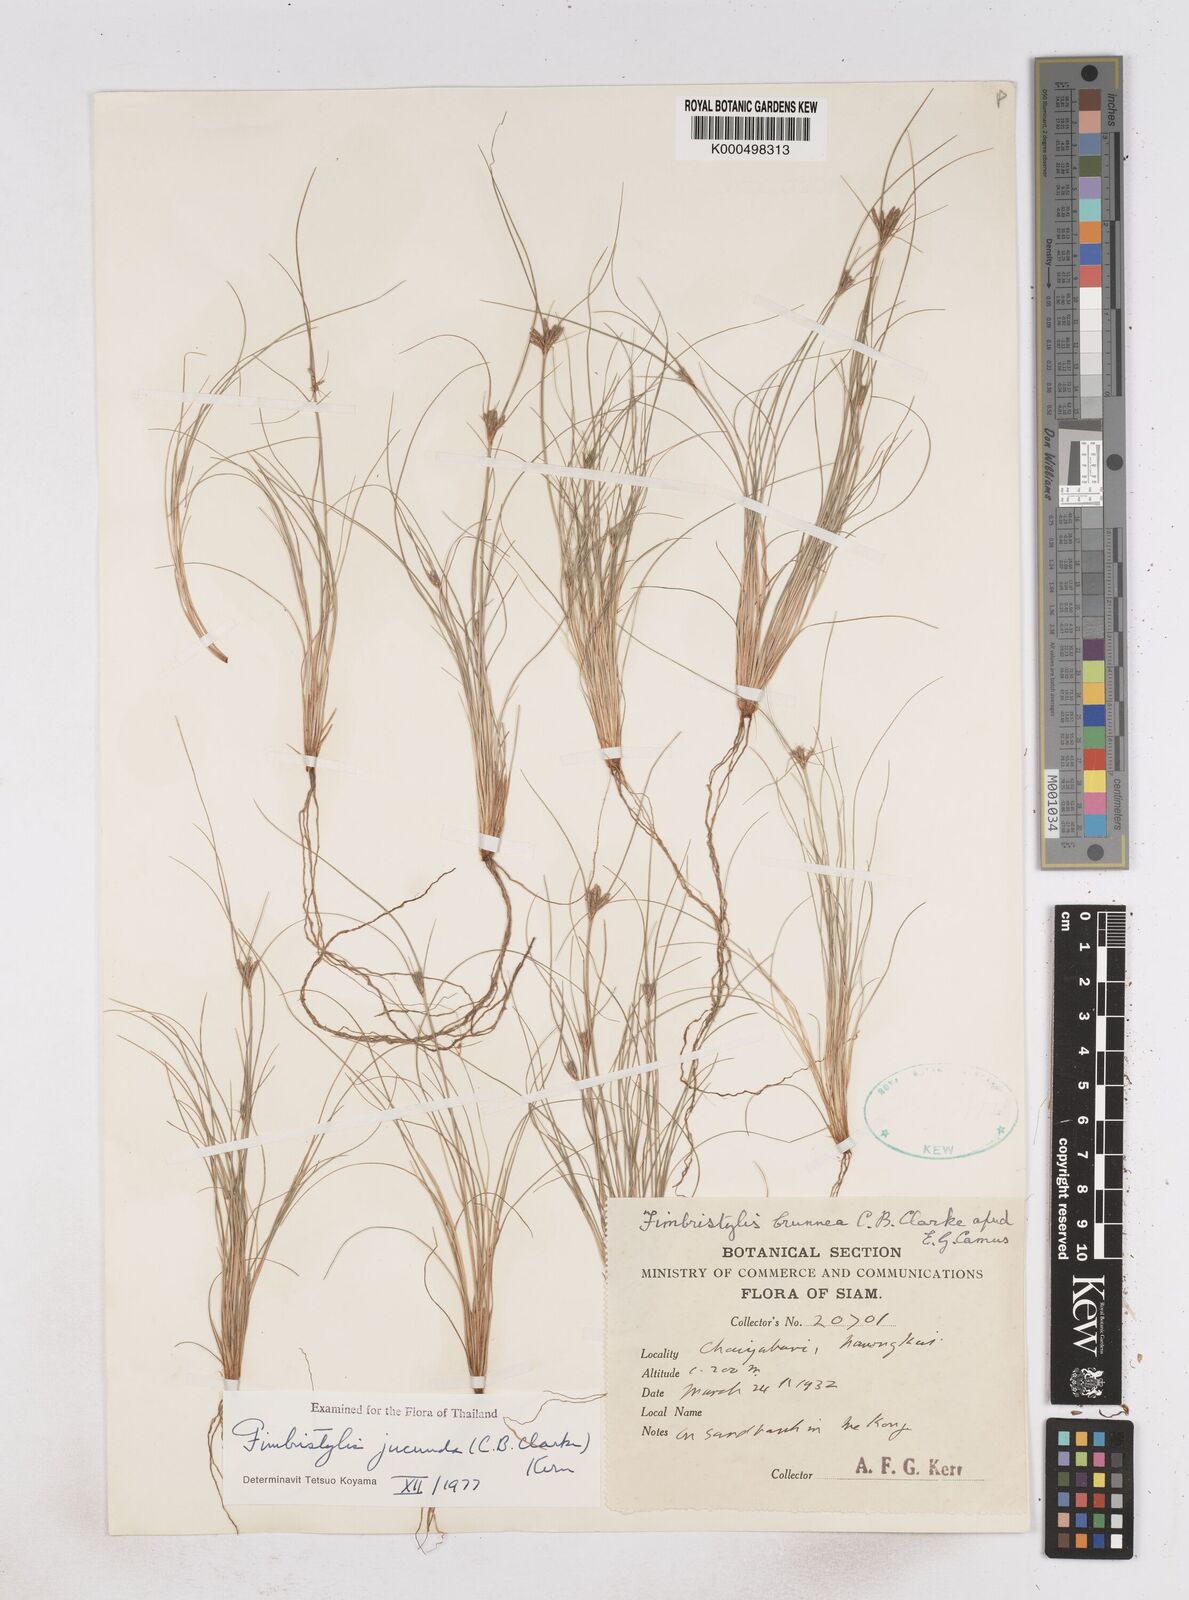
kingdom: Plantae
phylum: Tracheophyta
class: Liliopsida
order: Poales
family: Cyperaceae
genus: Fimbristylis
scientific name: Fimbristylis jucunda
